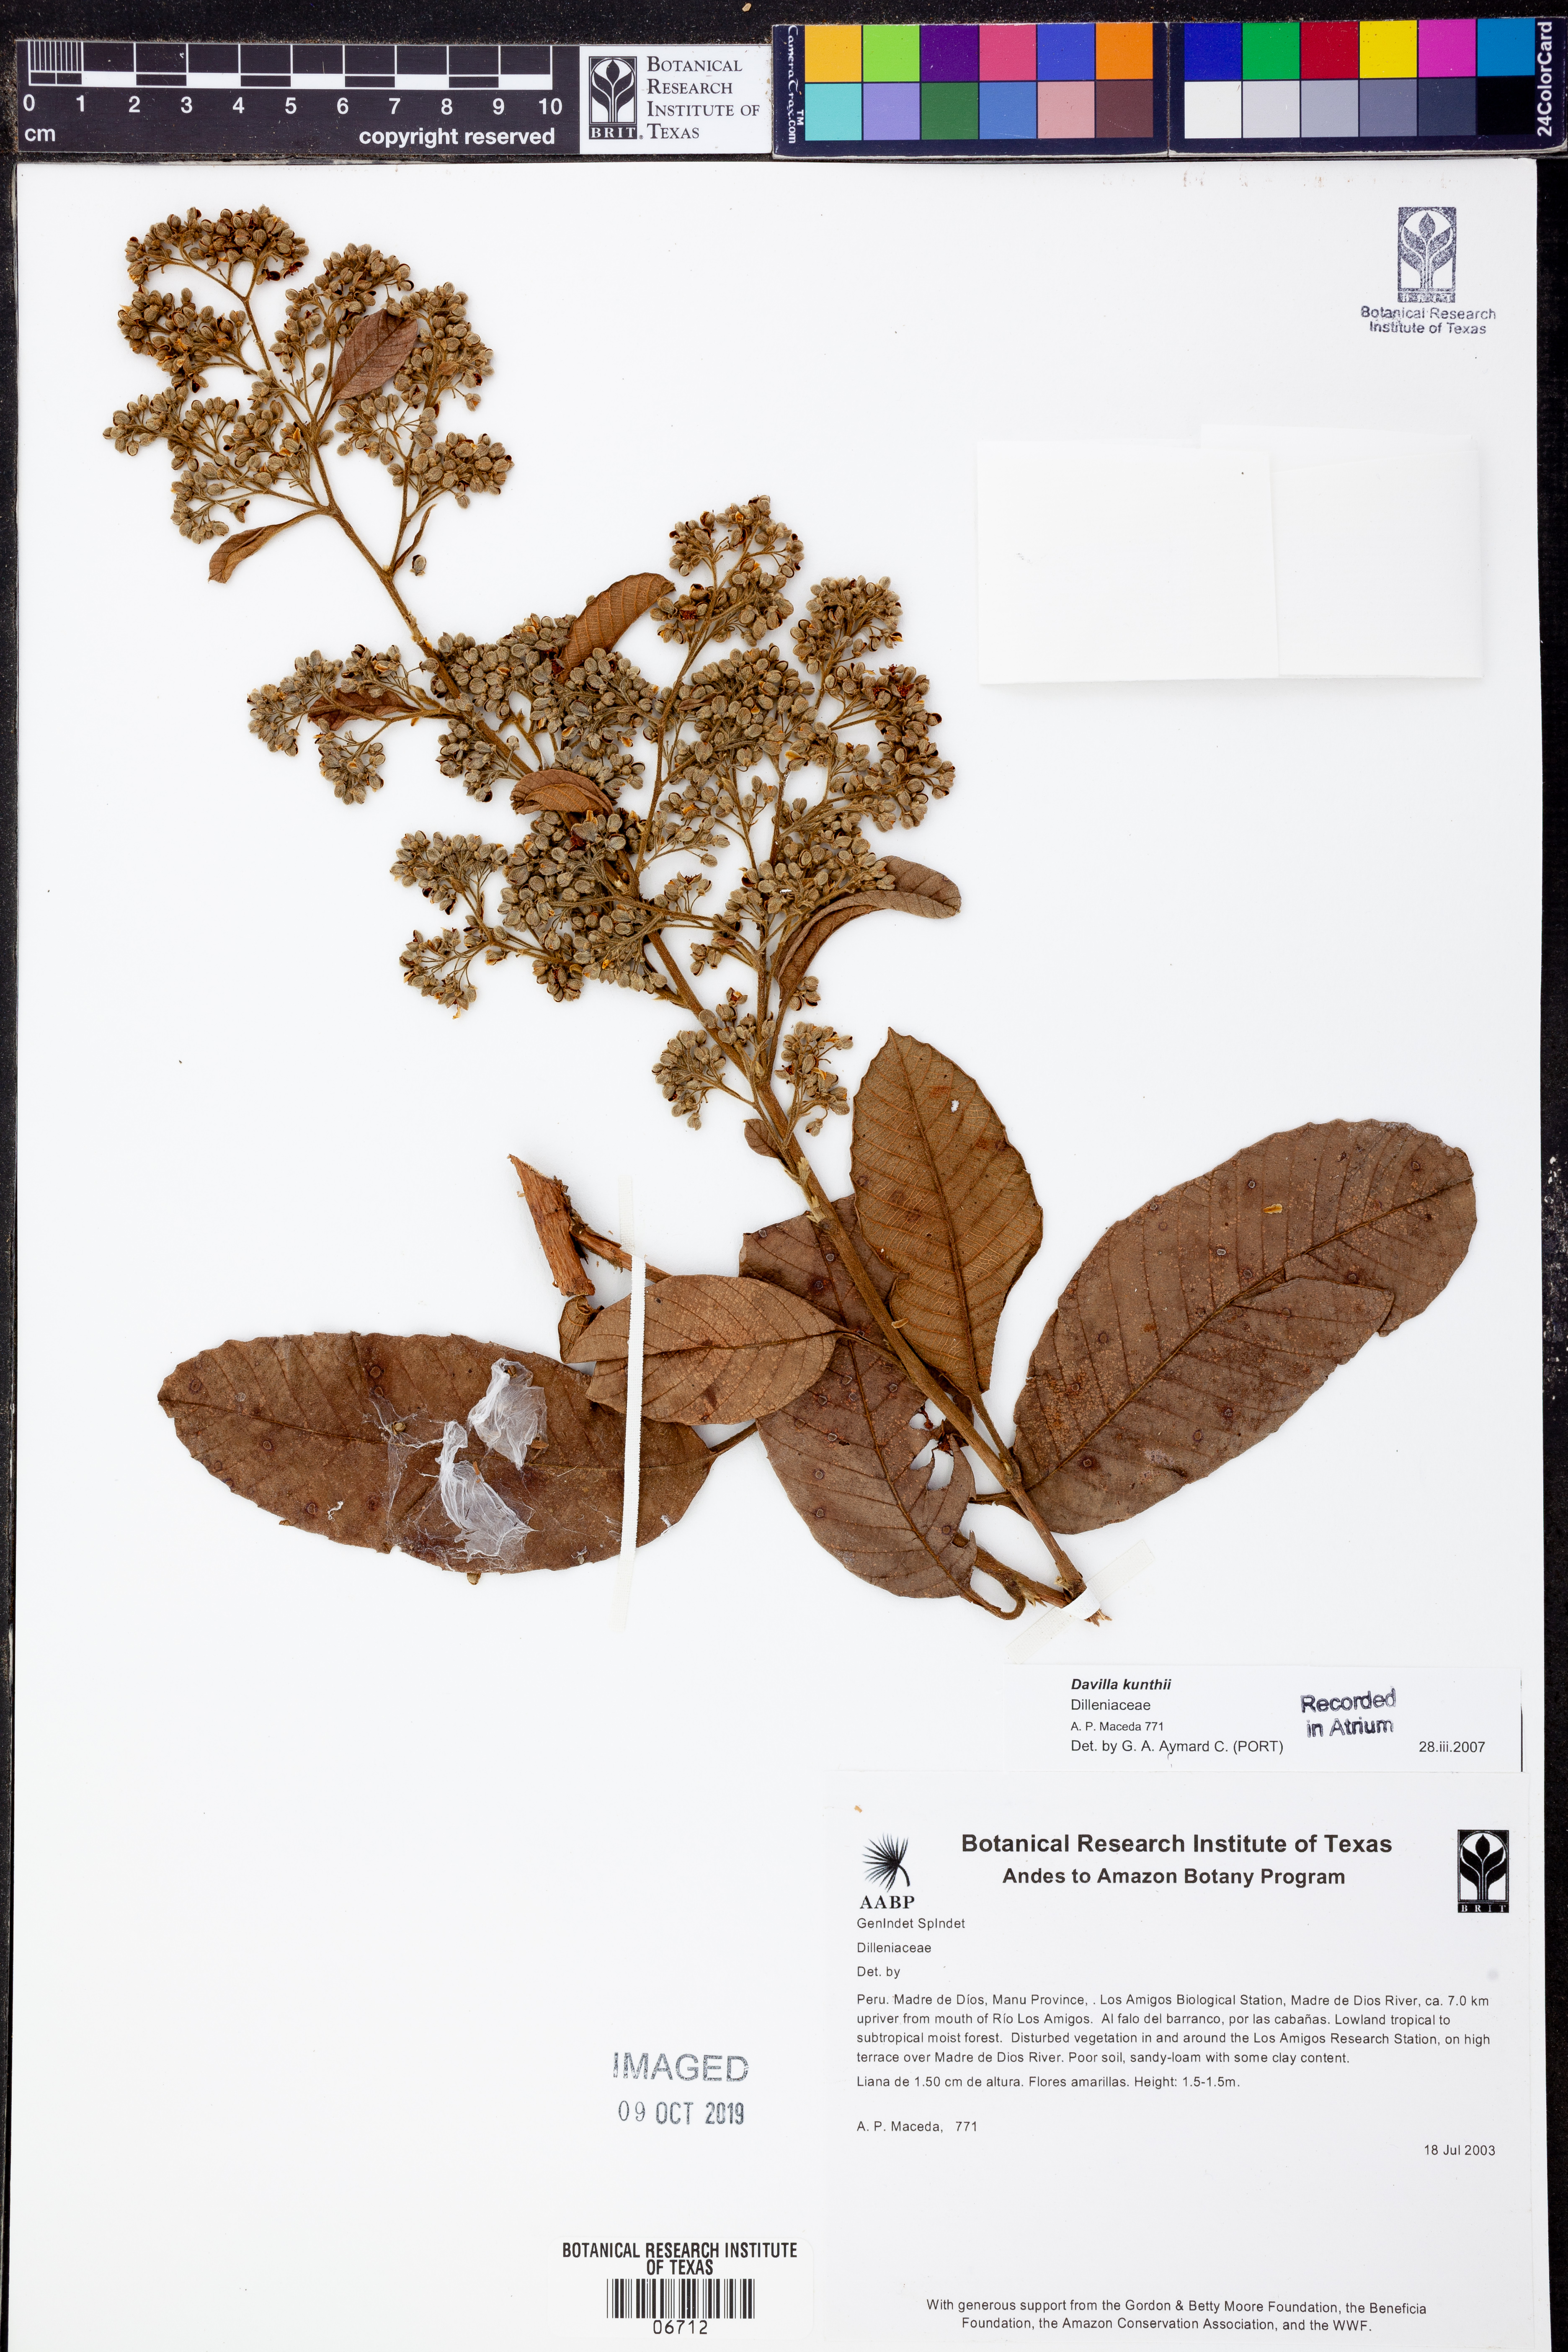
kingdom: Plantae
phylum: Tracheophyta
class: Polypodiopsida
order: Polypodiales
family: Davalliaceae
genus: Davallia
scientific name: Davallia
